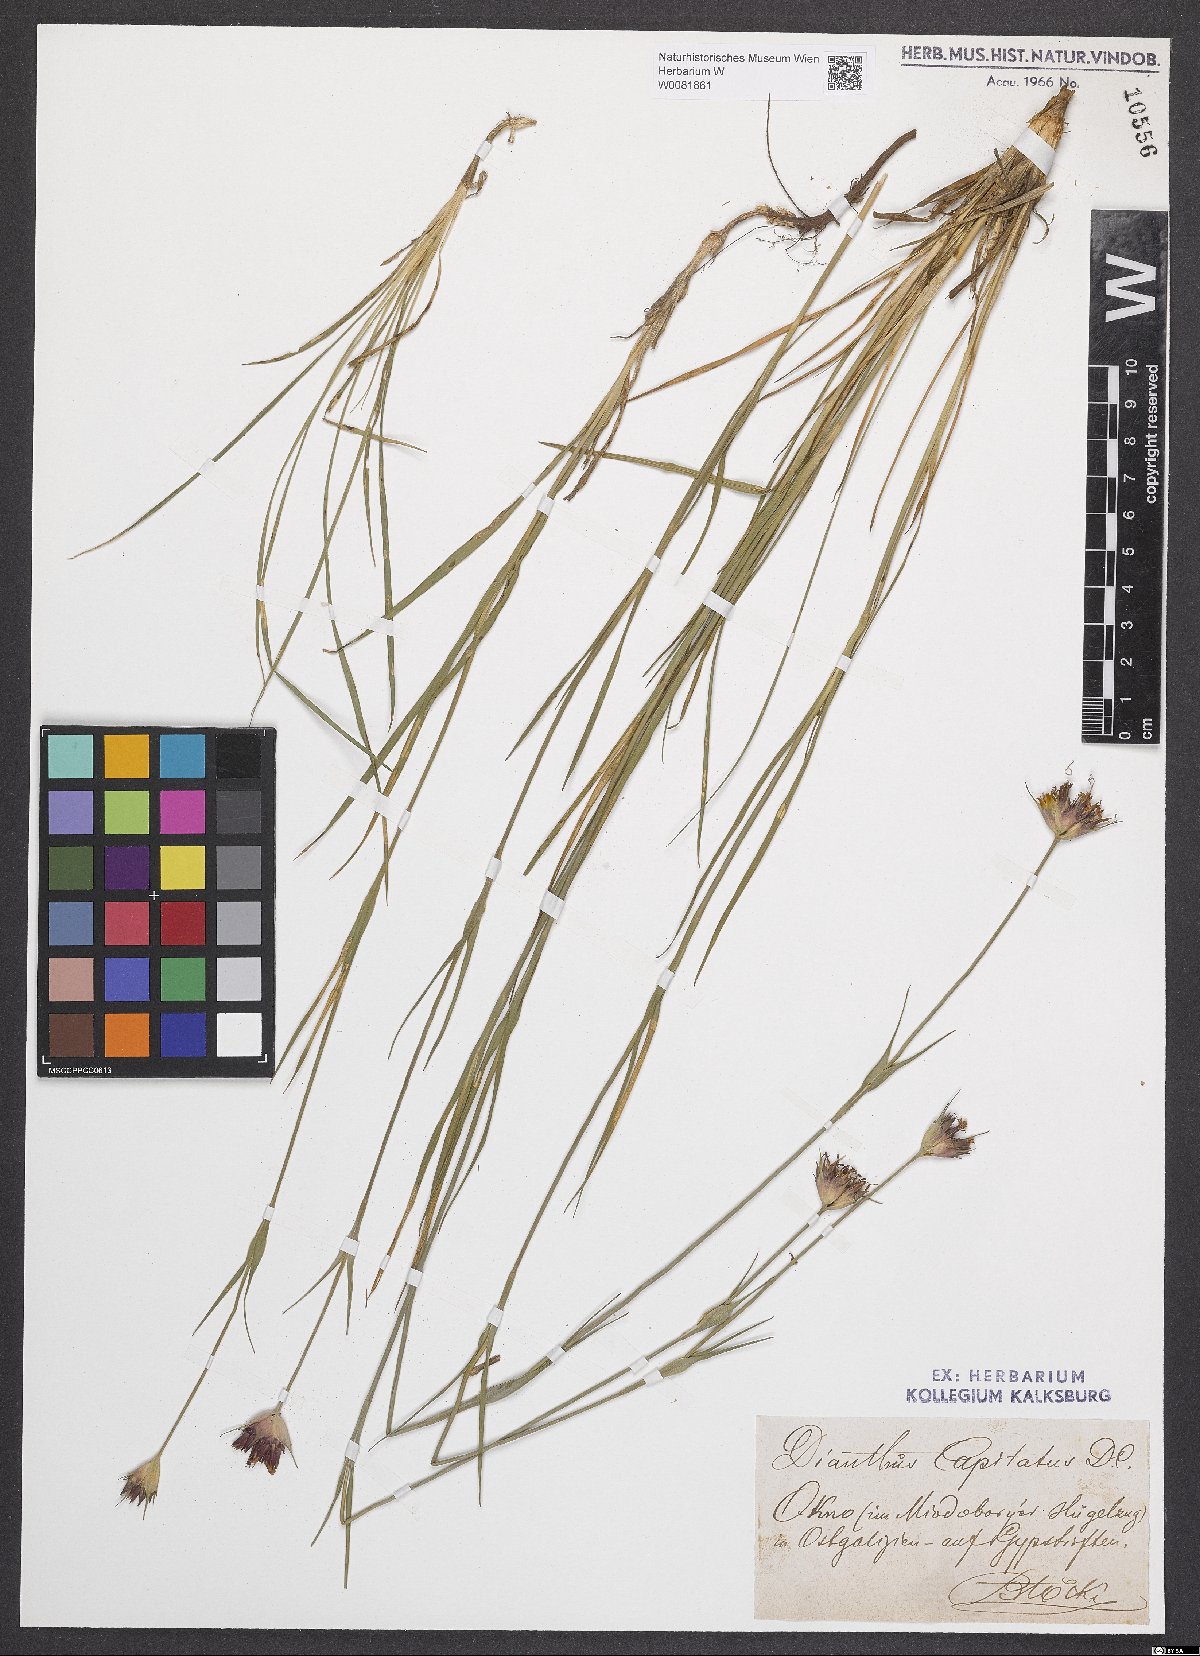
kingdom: Plantae
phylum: Tracheophyta
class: Magnoliopsida
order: Caryophyllales
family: Caryophyllaceae
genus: Dianthus
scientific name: Dianthus capitatus
